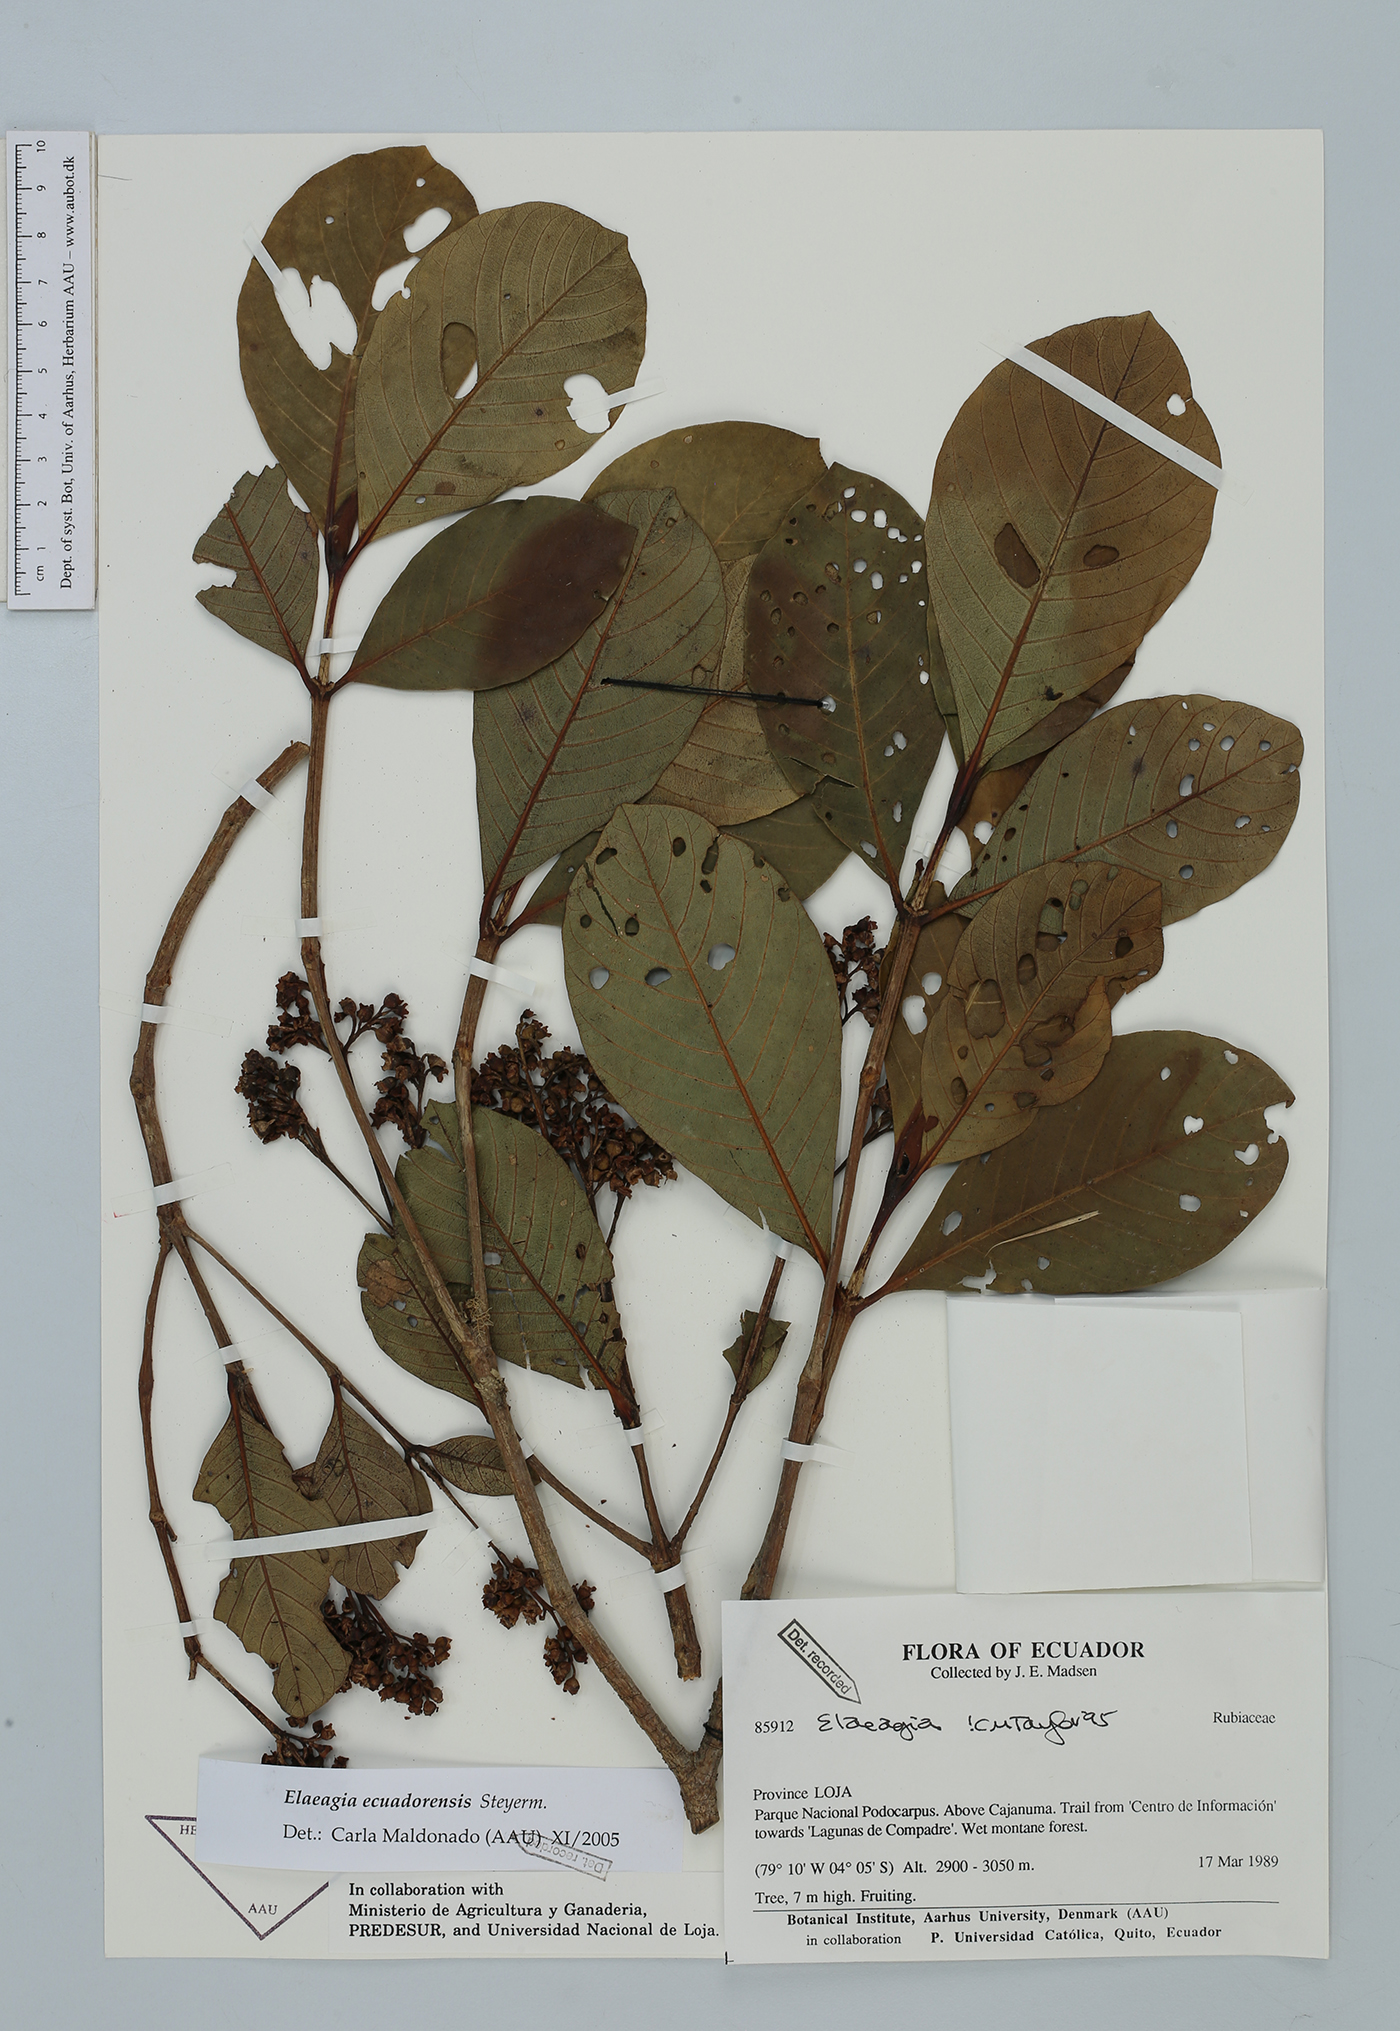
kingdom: Plantae
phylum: Tracheophyta
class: Magnoliopsida
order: Gentianales
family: Rubiaceae
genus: Elaeagia
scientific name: Elaeagia ecuadorensis
